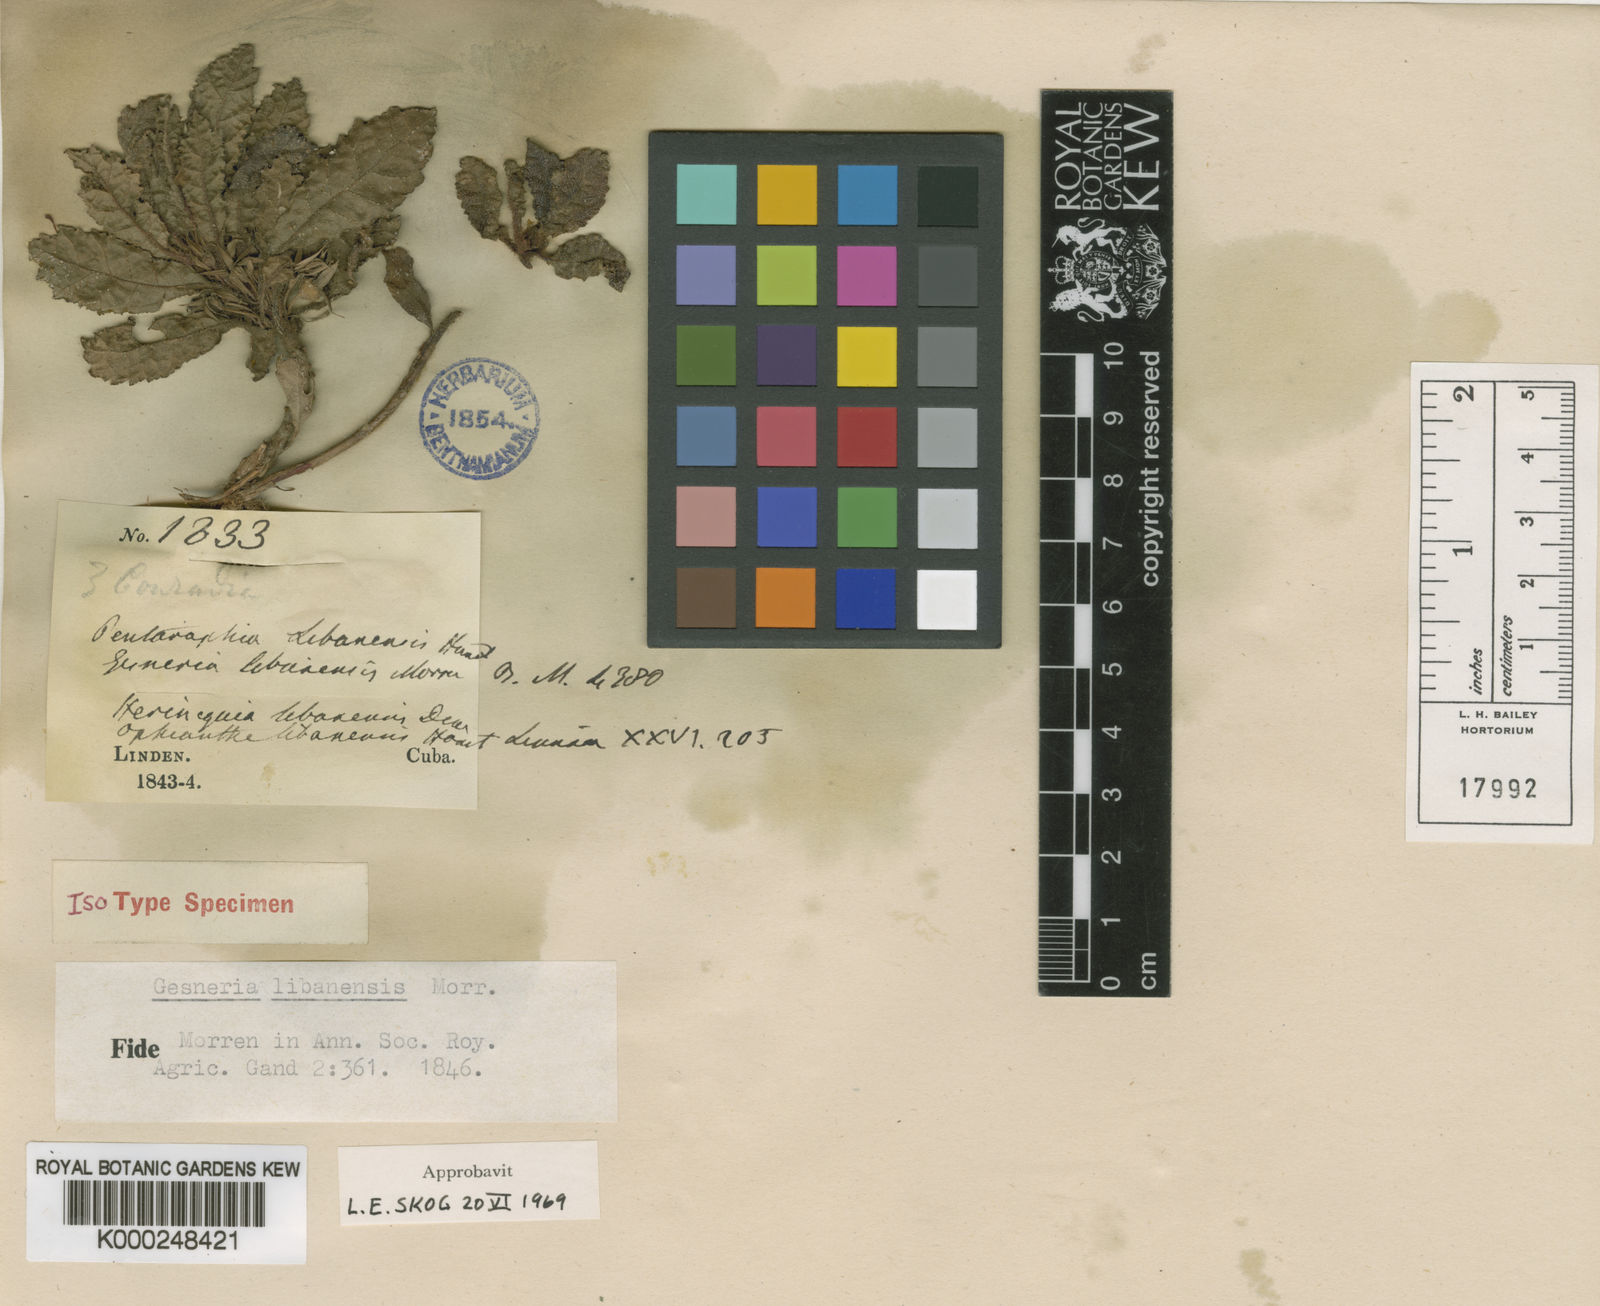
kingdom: Plantae
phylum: Tracheophyta
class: Magnoliopsida
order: Lamiales
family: Gesneriaceae
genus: Gesneria
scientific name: Gesneria libanensis
